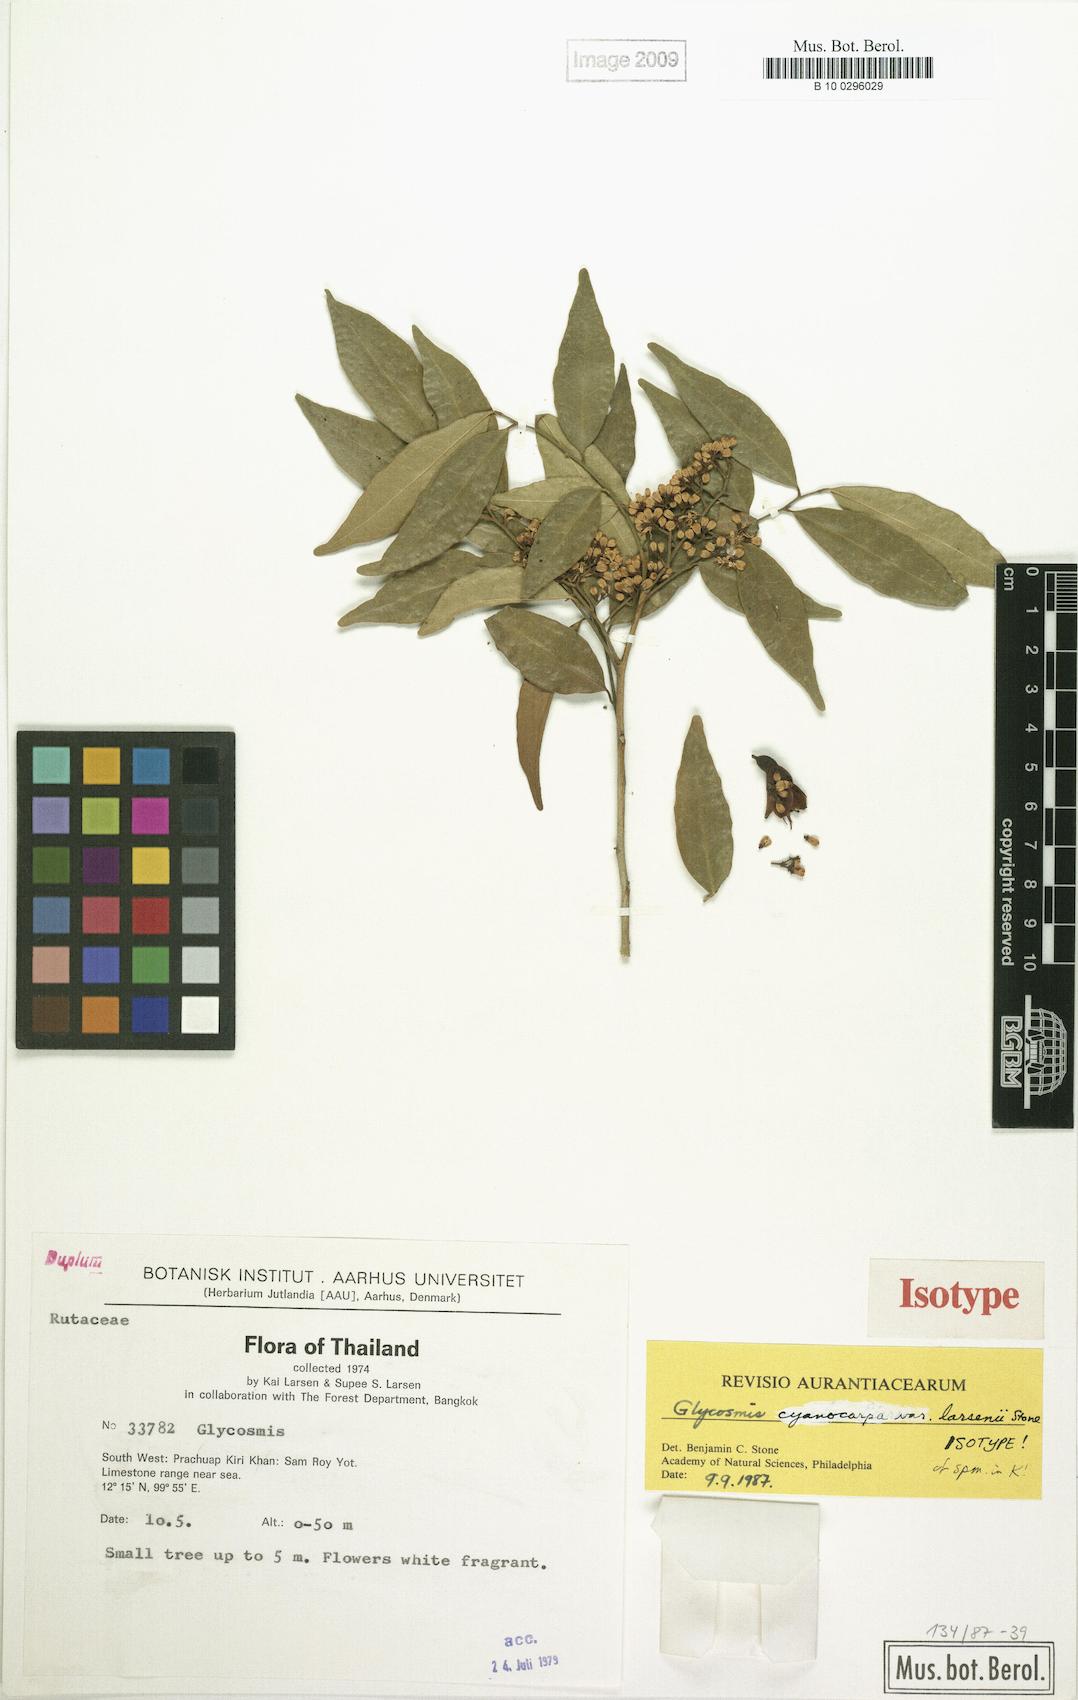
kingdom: Plantae
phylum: Tracheophyta
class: Magnoliopsida
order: Sapindales
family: Rutaceae
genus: Glycosmis
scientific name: Glycosmis cyanocarpa
